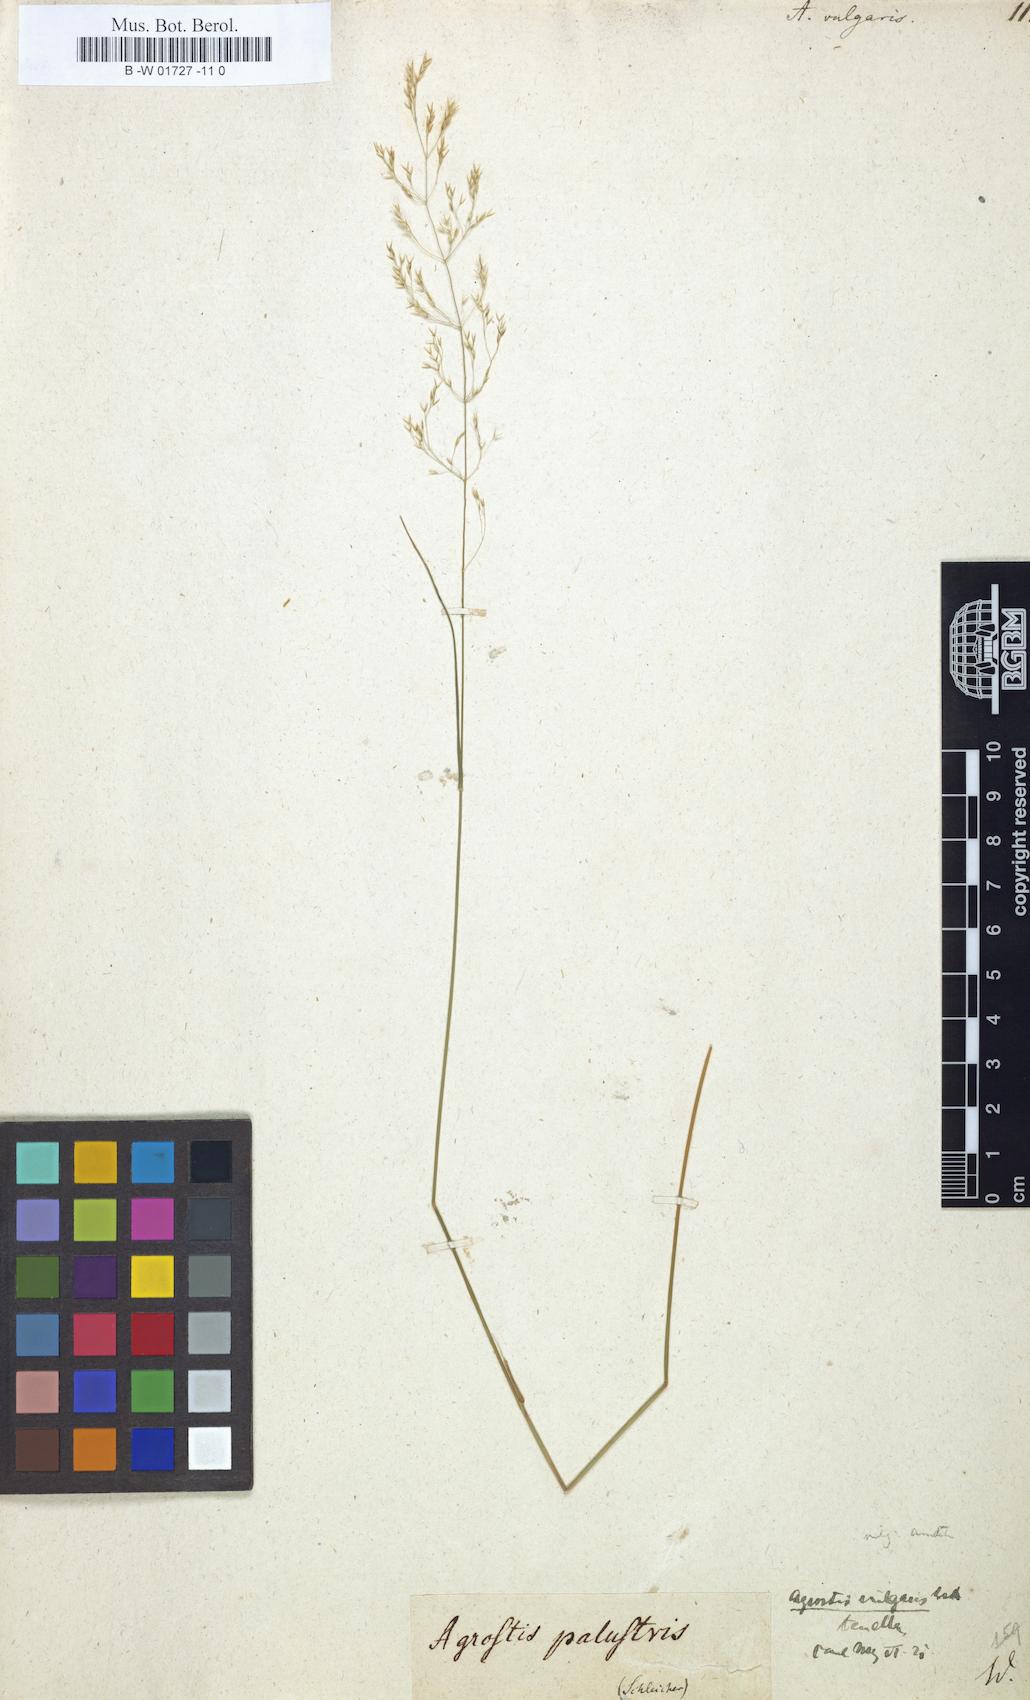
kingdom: Plantae
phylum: Tracheophyta
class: Liliopsida
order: Poales
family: Poaceae
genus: Agrostis
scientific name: Agrostis capillaris
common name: Colonial bentgrass
